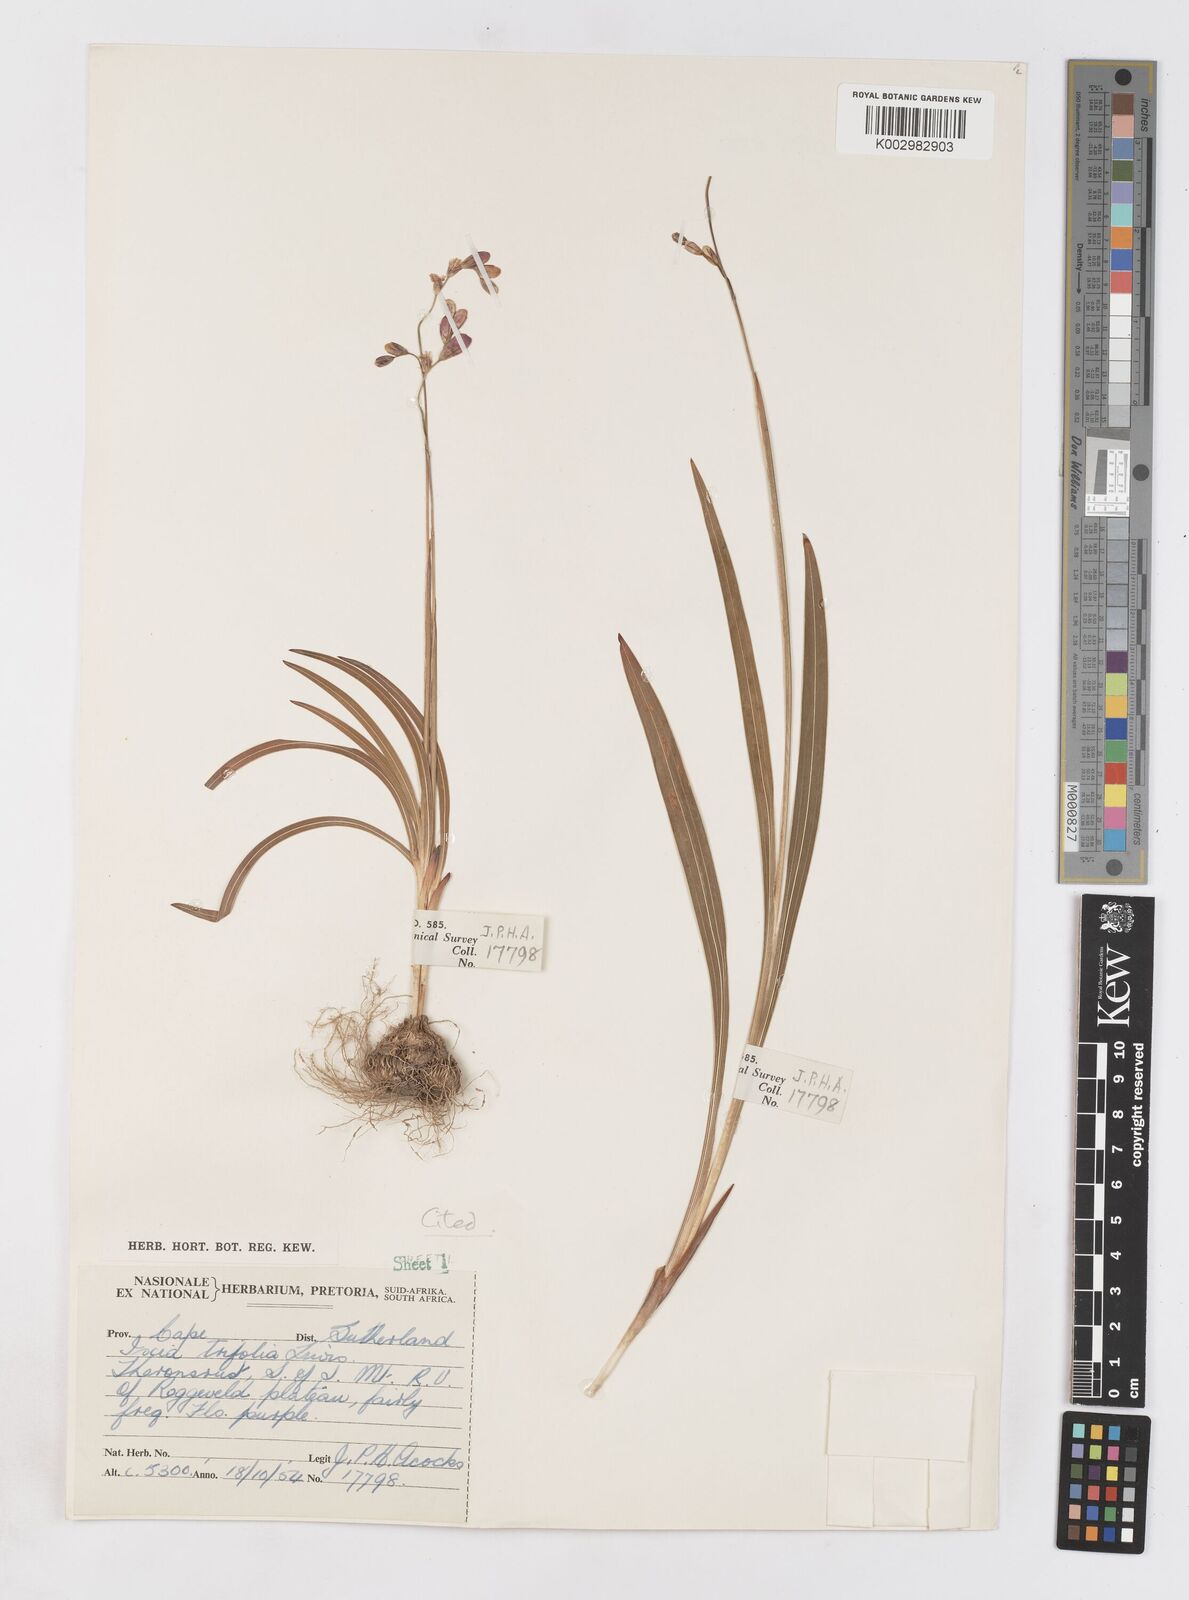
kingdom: Plantae
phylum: Tracheophyta
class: Liliopsida
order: Asparagales
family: Iridaceae
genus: Ixia
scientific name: Ixia trifolia
